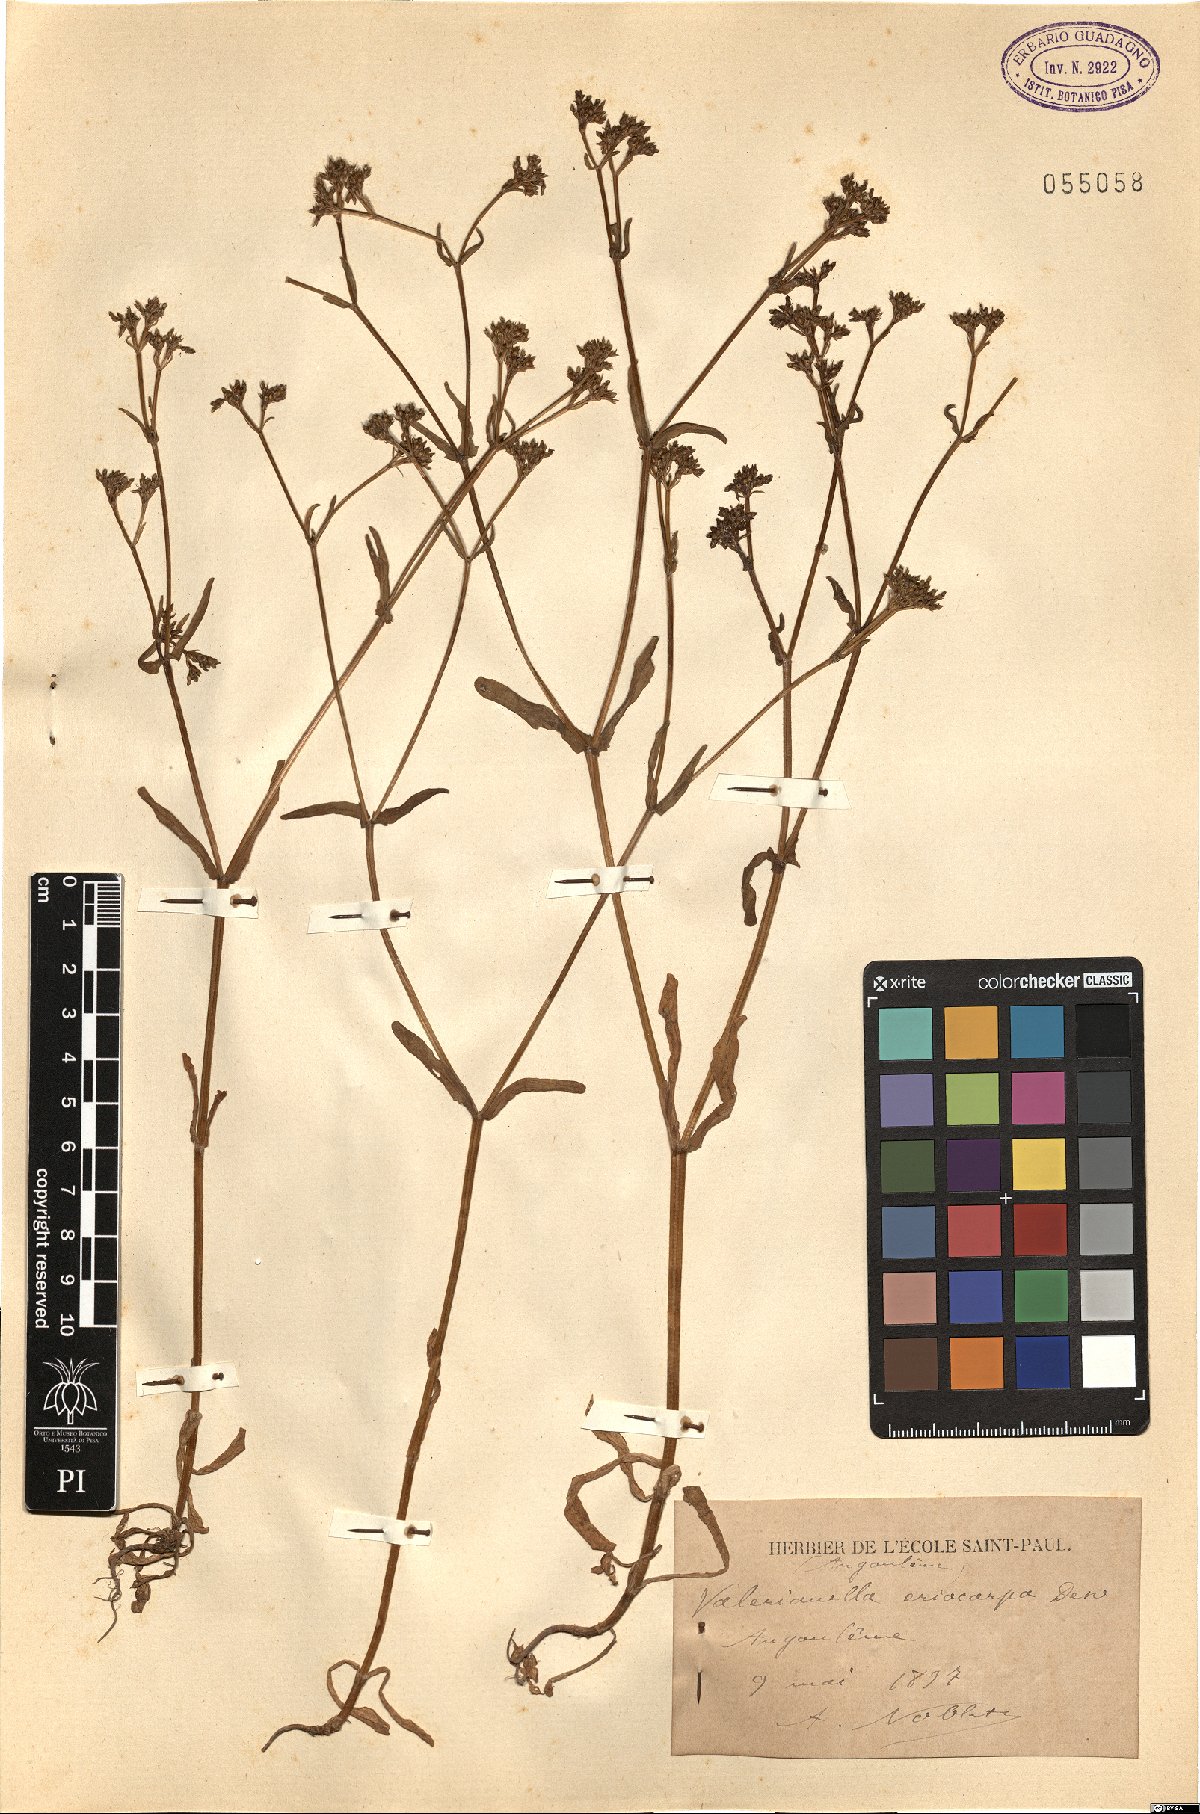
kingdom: Plantae
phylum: Tracheophyta
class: Magnoliopsida
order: Dipsacales
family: Caprifoliaceae
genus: Valerianella
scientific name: Valerianella eriocarpa
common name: Hairy-fruited cornsalad
